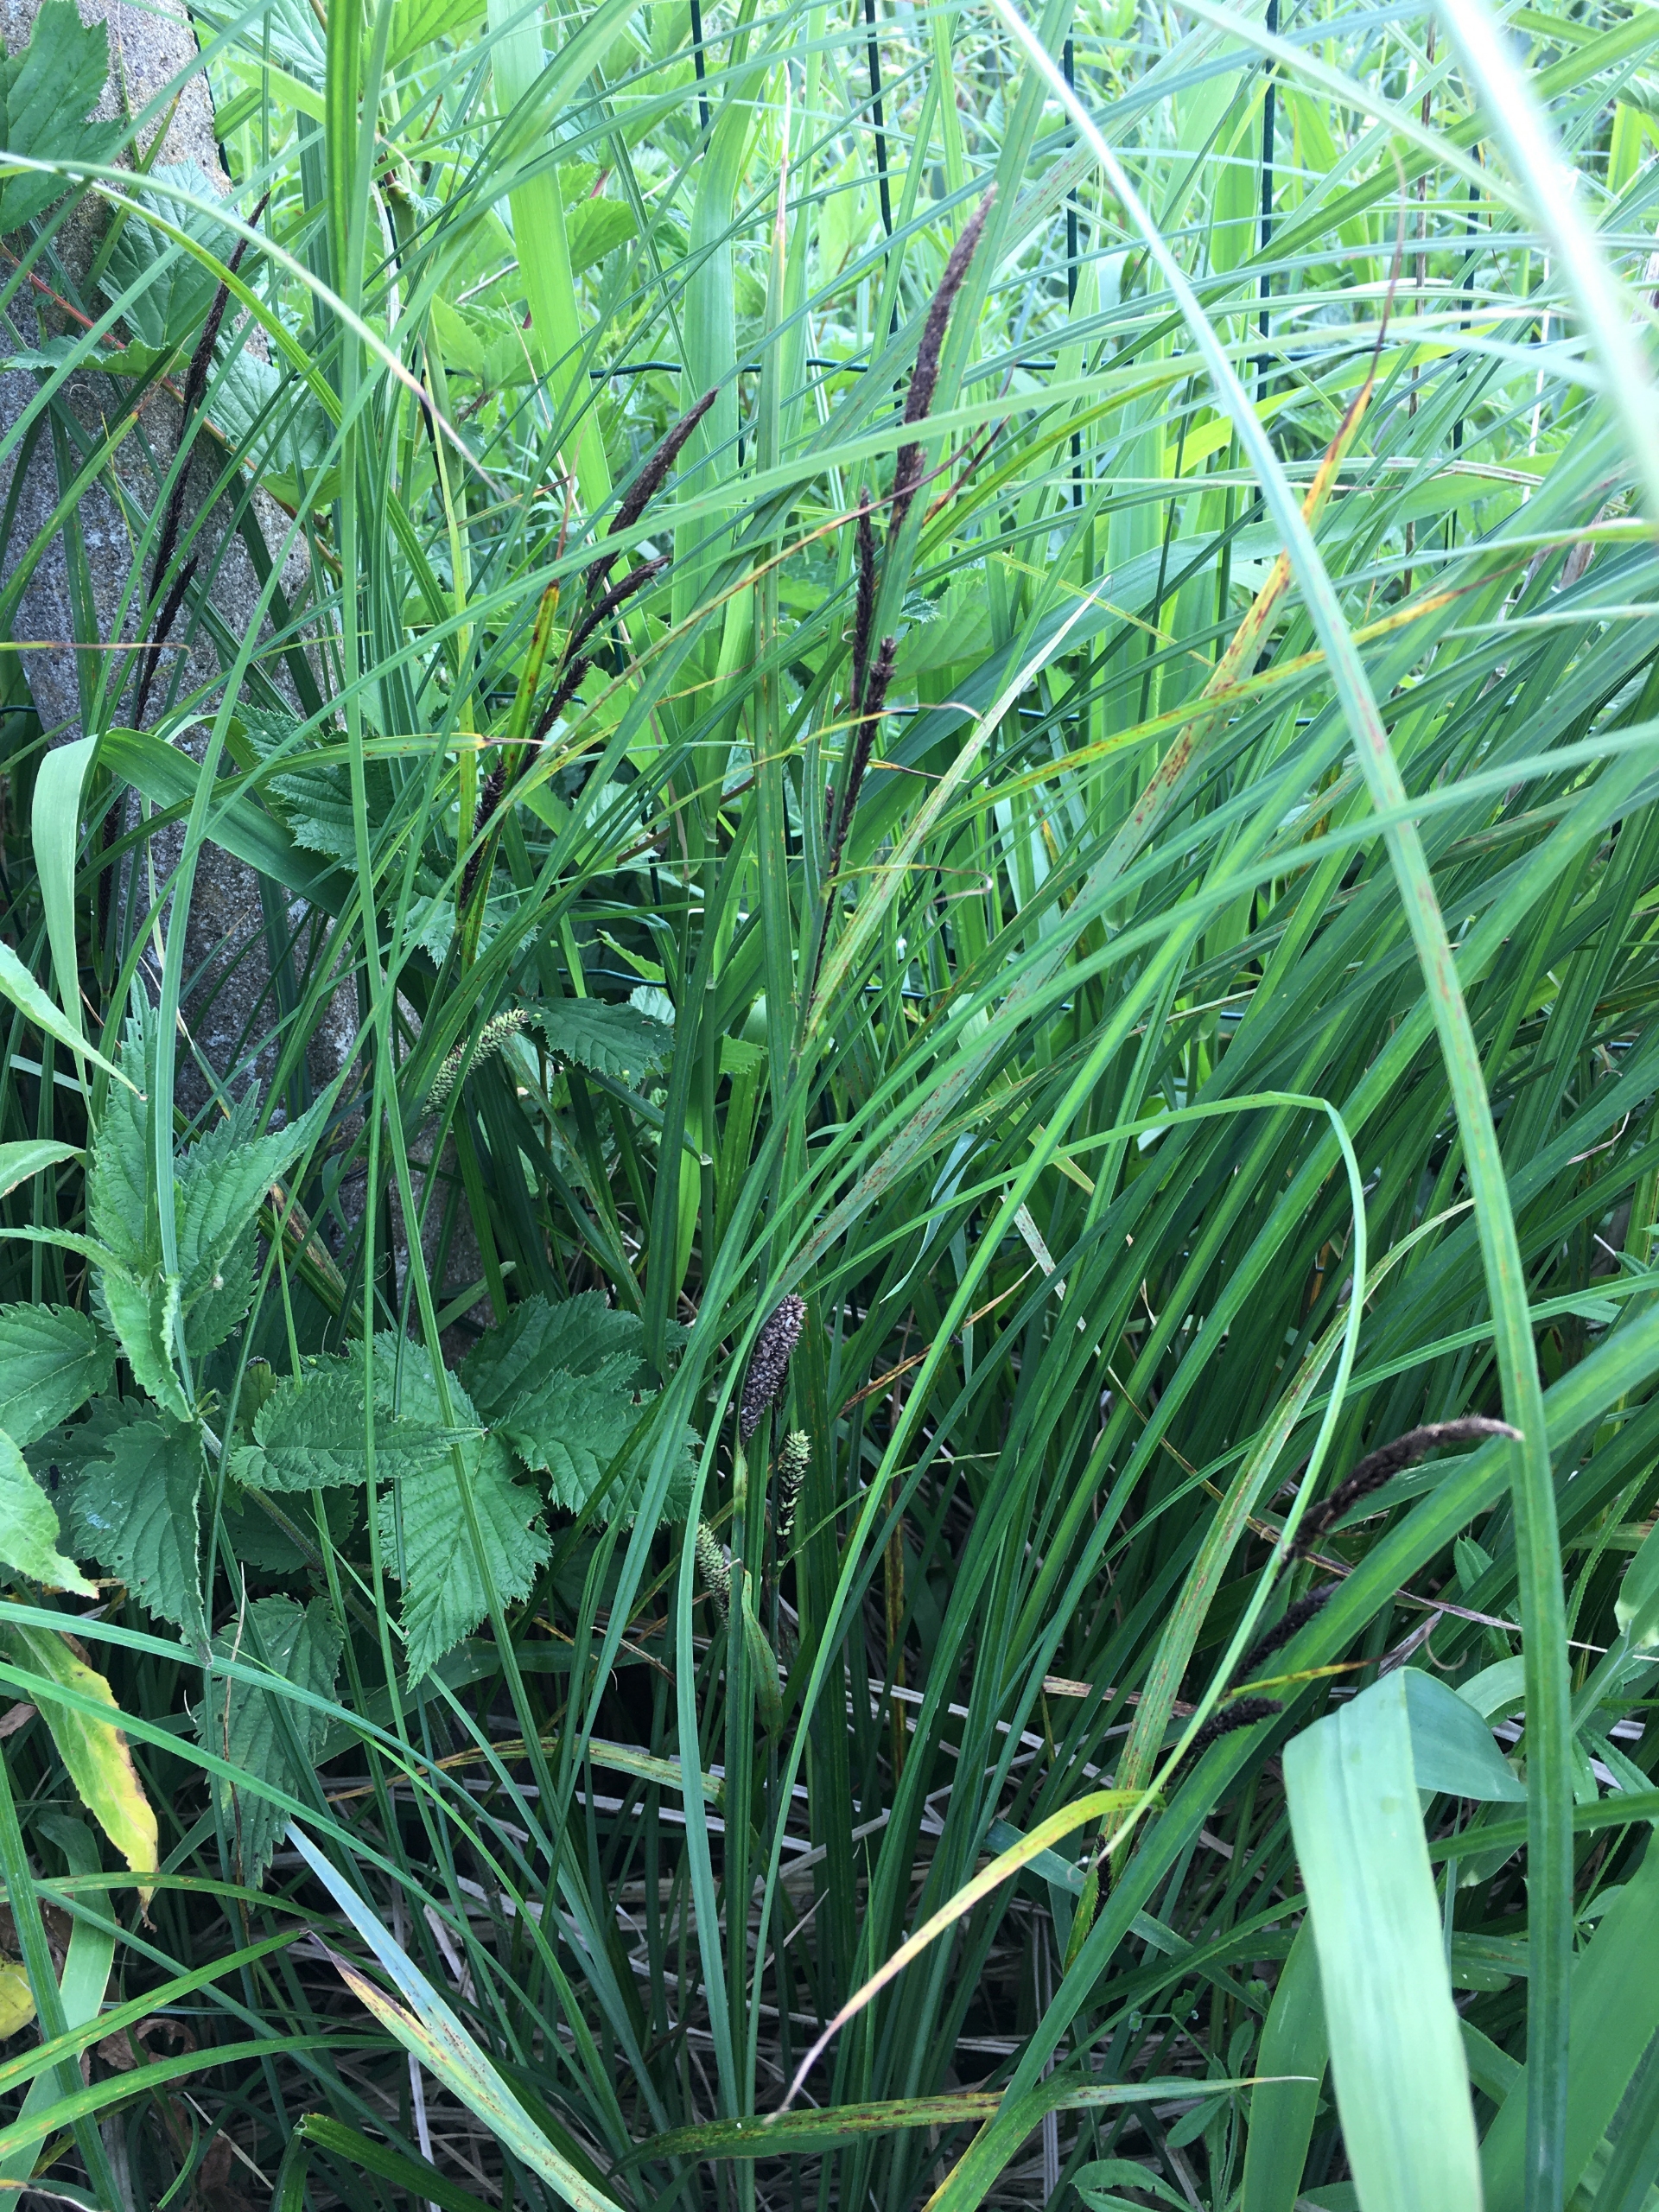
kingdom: Plantae
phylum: Tracheophyta
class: Liliopsida
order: Poales
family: Cyperaceae
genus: Carex
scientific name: Carex acutiformis
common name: Kær-star
